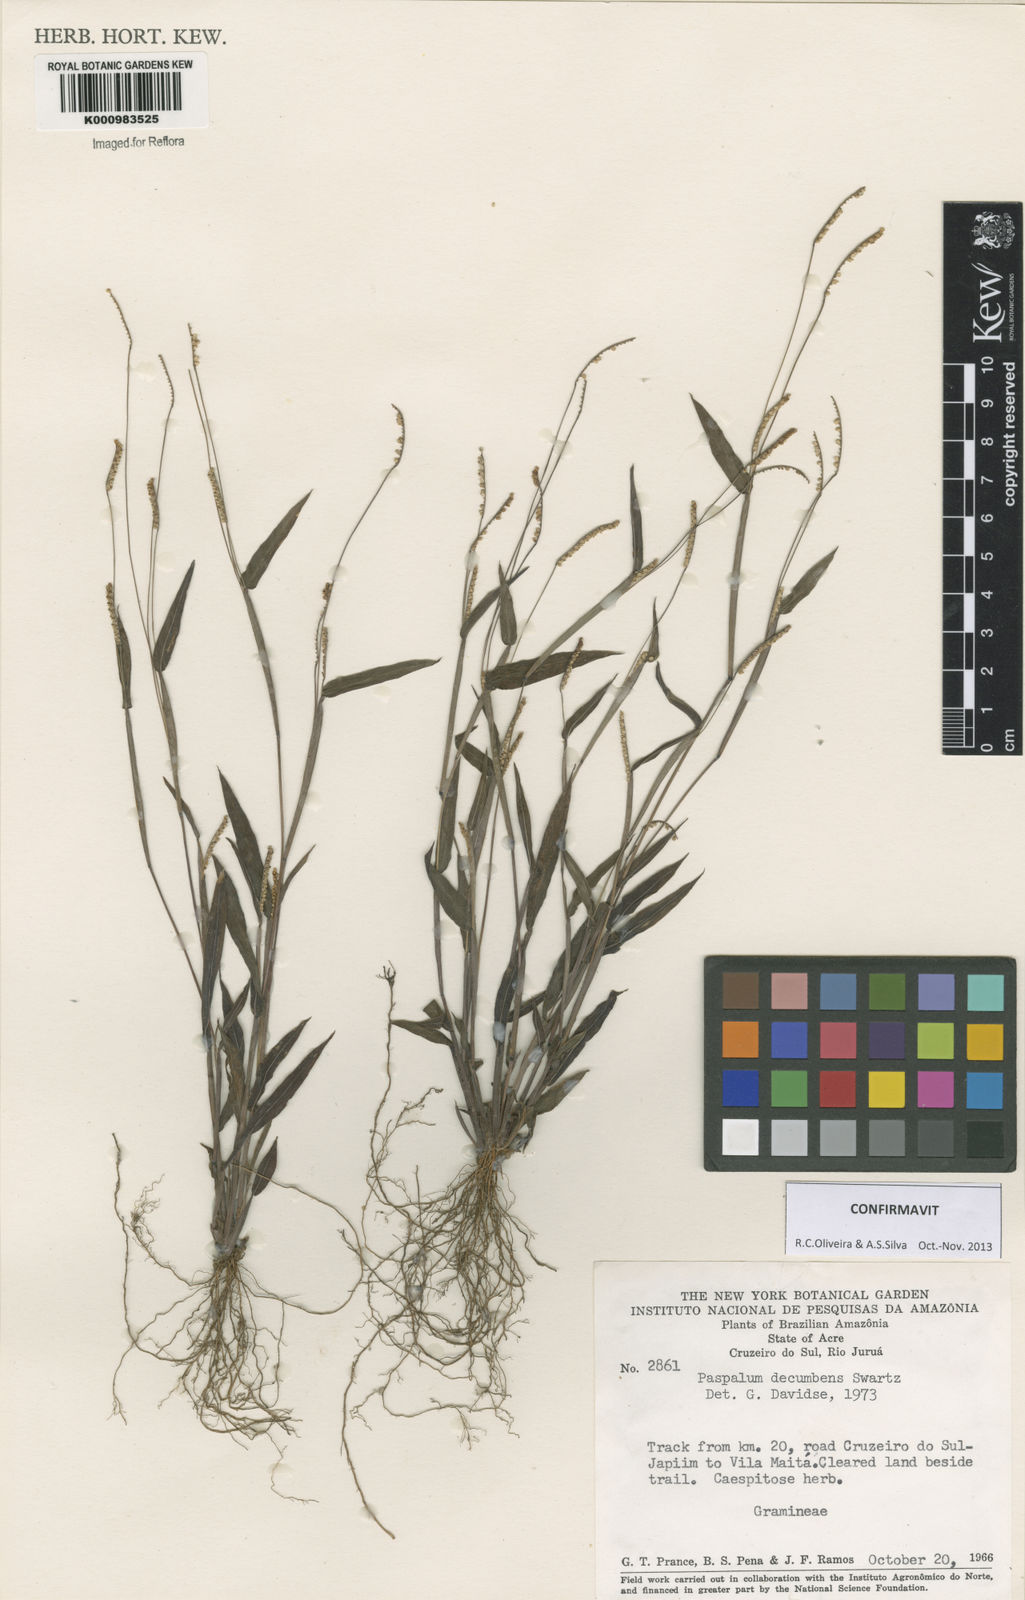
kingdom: Plantae
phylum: Tracheophyta
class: Liliopsida
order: Poales
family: Poaceae
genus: Paspalum
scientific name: Paspalum decumbens
